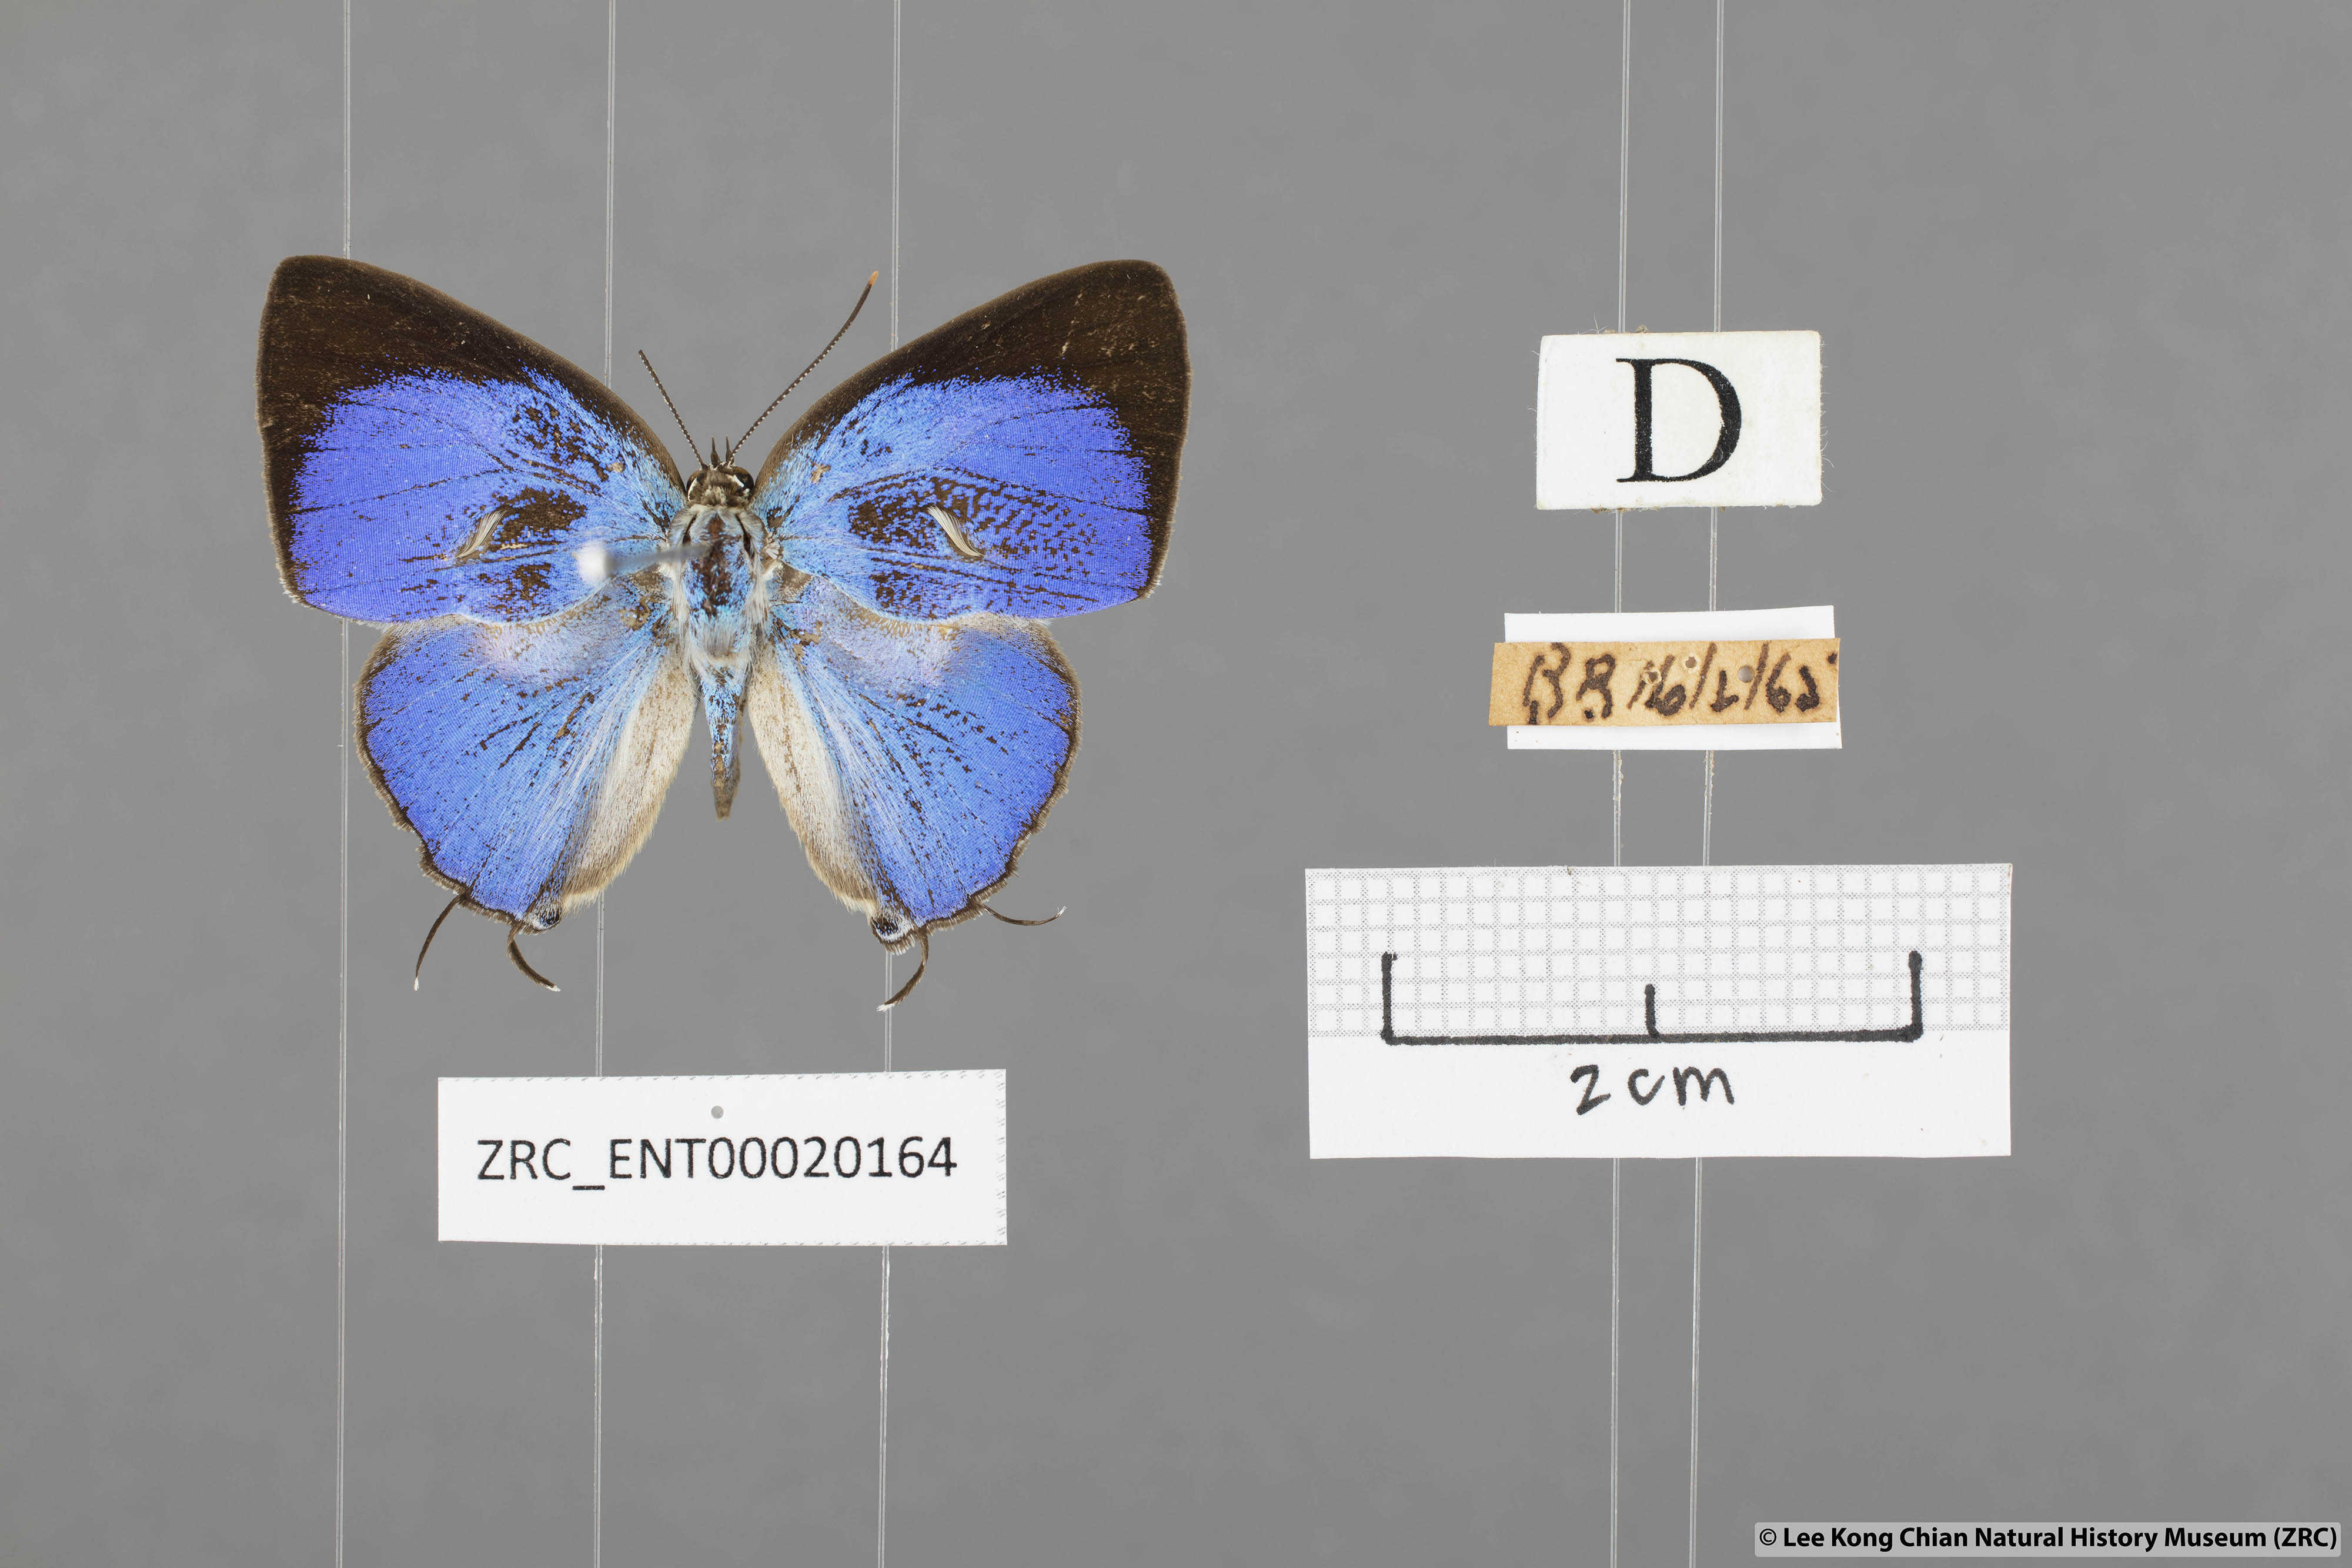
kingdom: Animalia
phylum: Arthropoda
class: Insecta
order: Lepidoptera
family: Lycaenidae
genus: Dacalana
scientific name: Dacalana vidura
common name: Medium-branded royal
